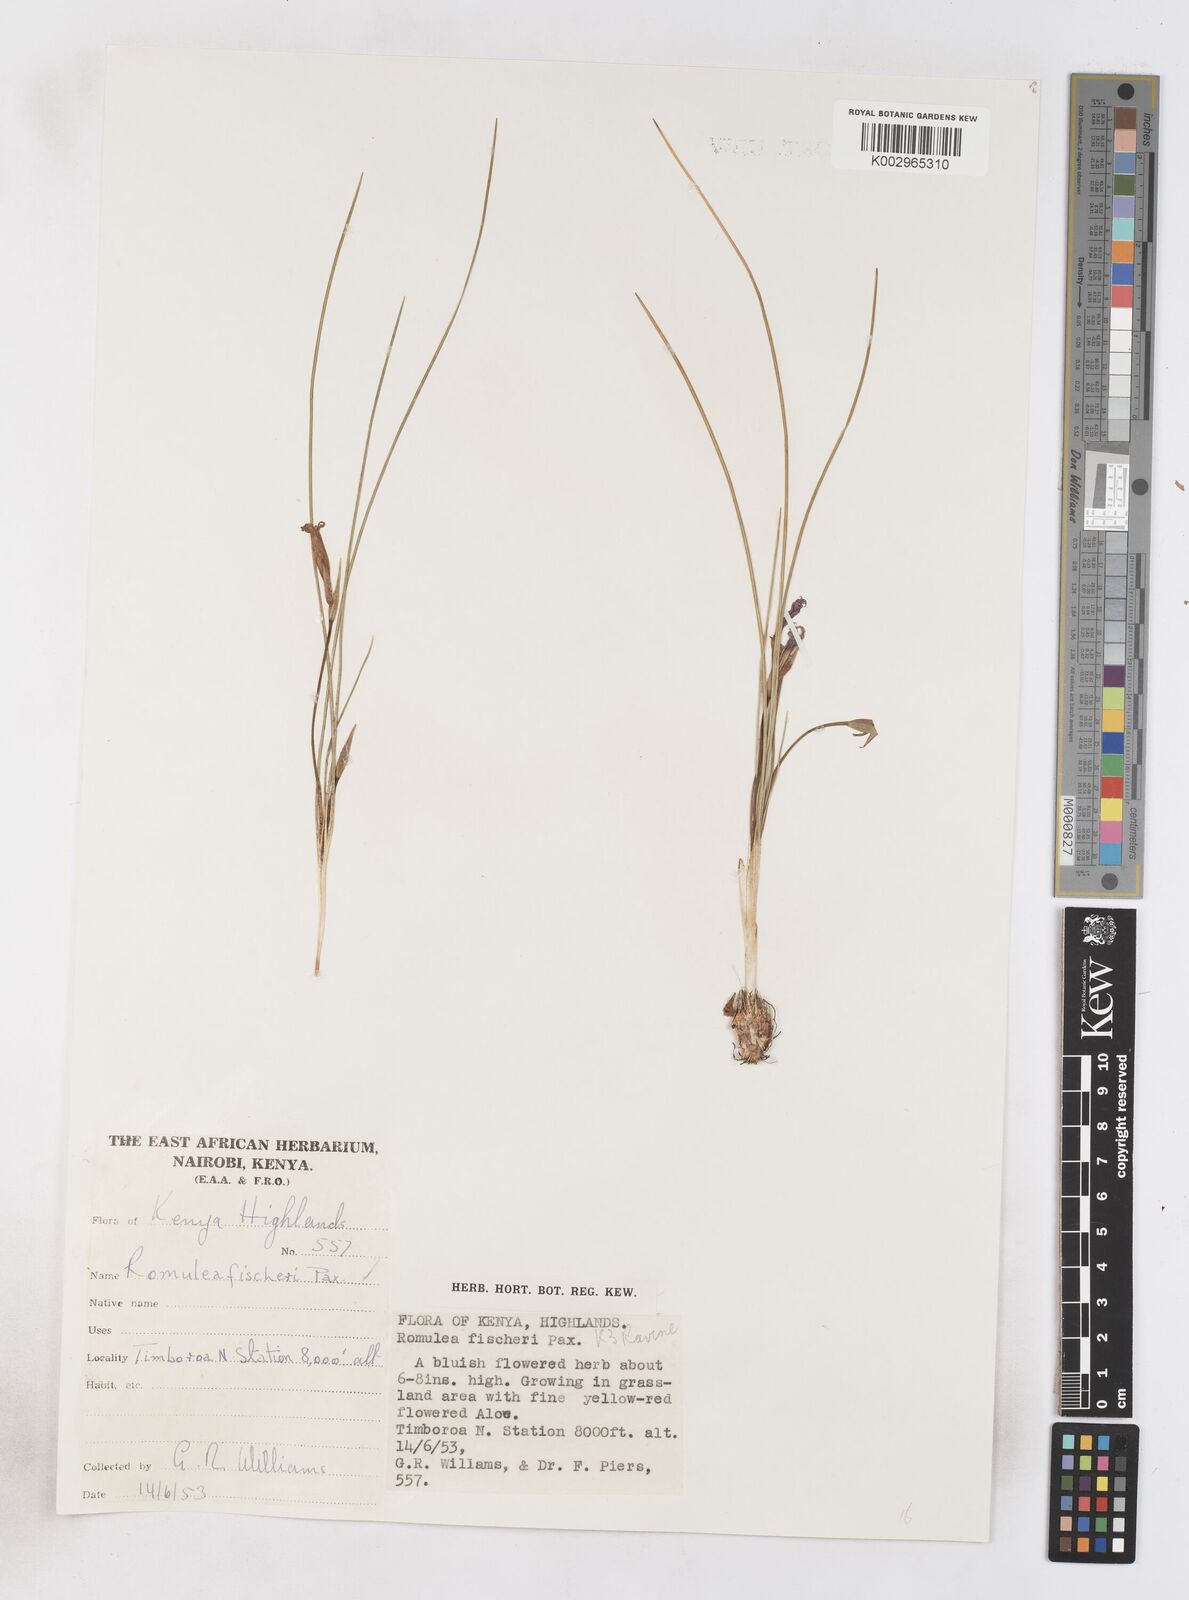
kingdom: Plantae
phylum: Tracheophyta
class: Liliopsida
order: Asparagales
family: Iridaceae
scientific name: Iridaceae
